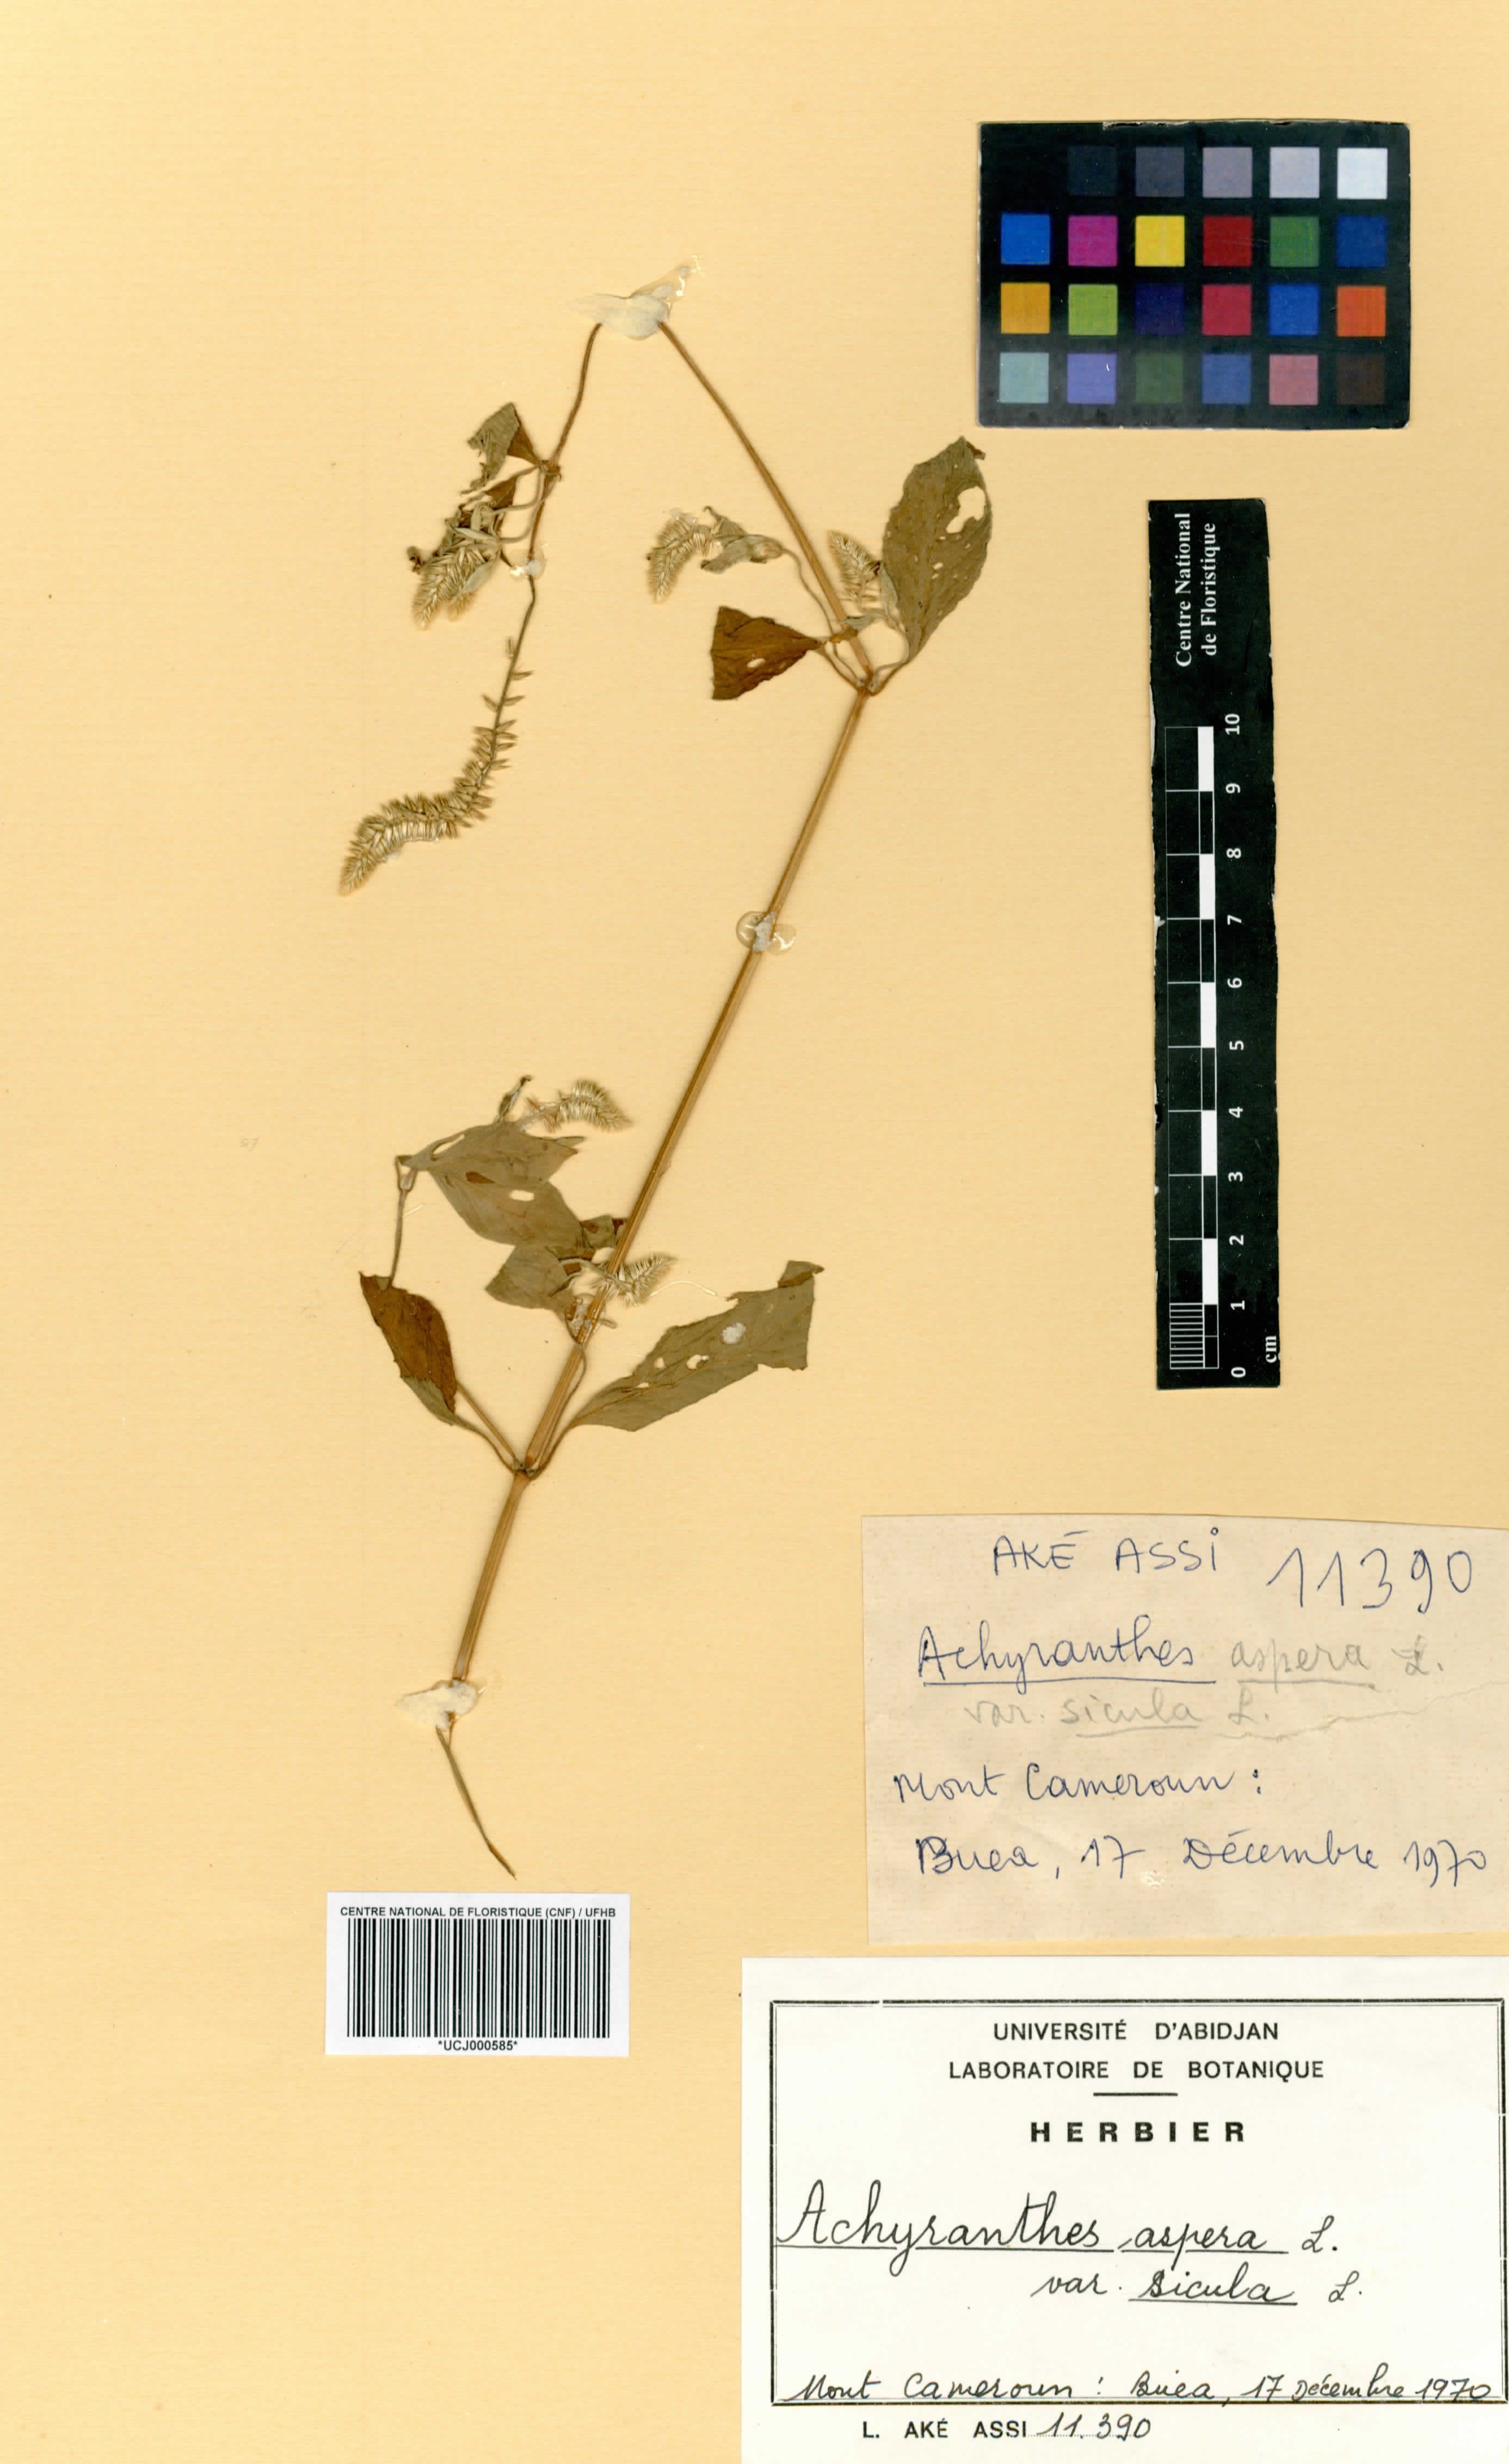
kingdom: Plantae
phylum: Tracheophyta
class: Magnoliopsida
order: Caryophyllales
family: Amaranthaceae
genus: Achyranthes
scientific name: Achyranthes sicula
